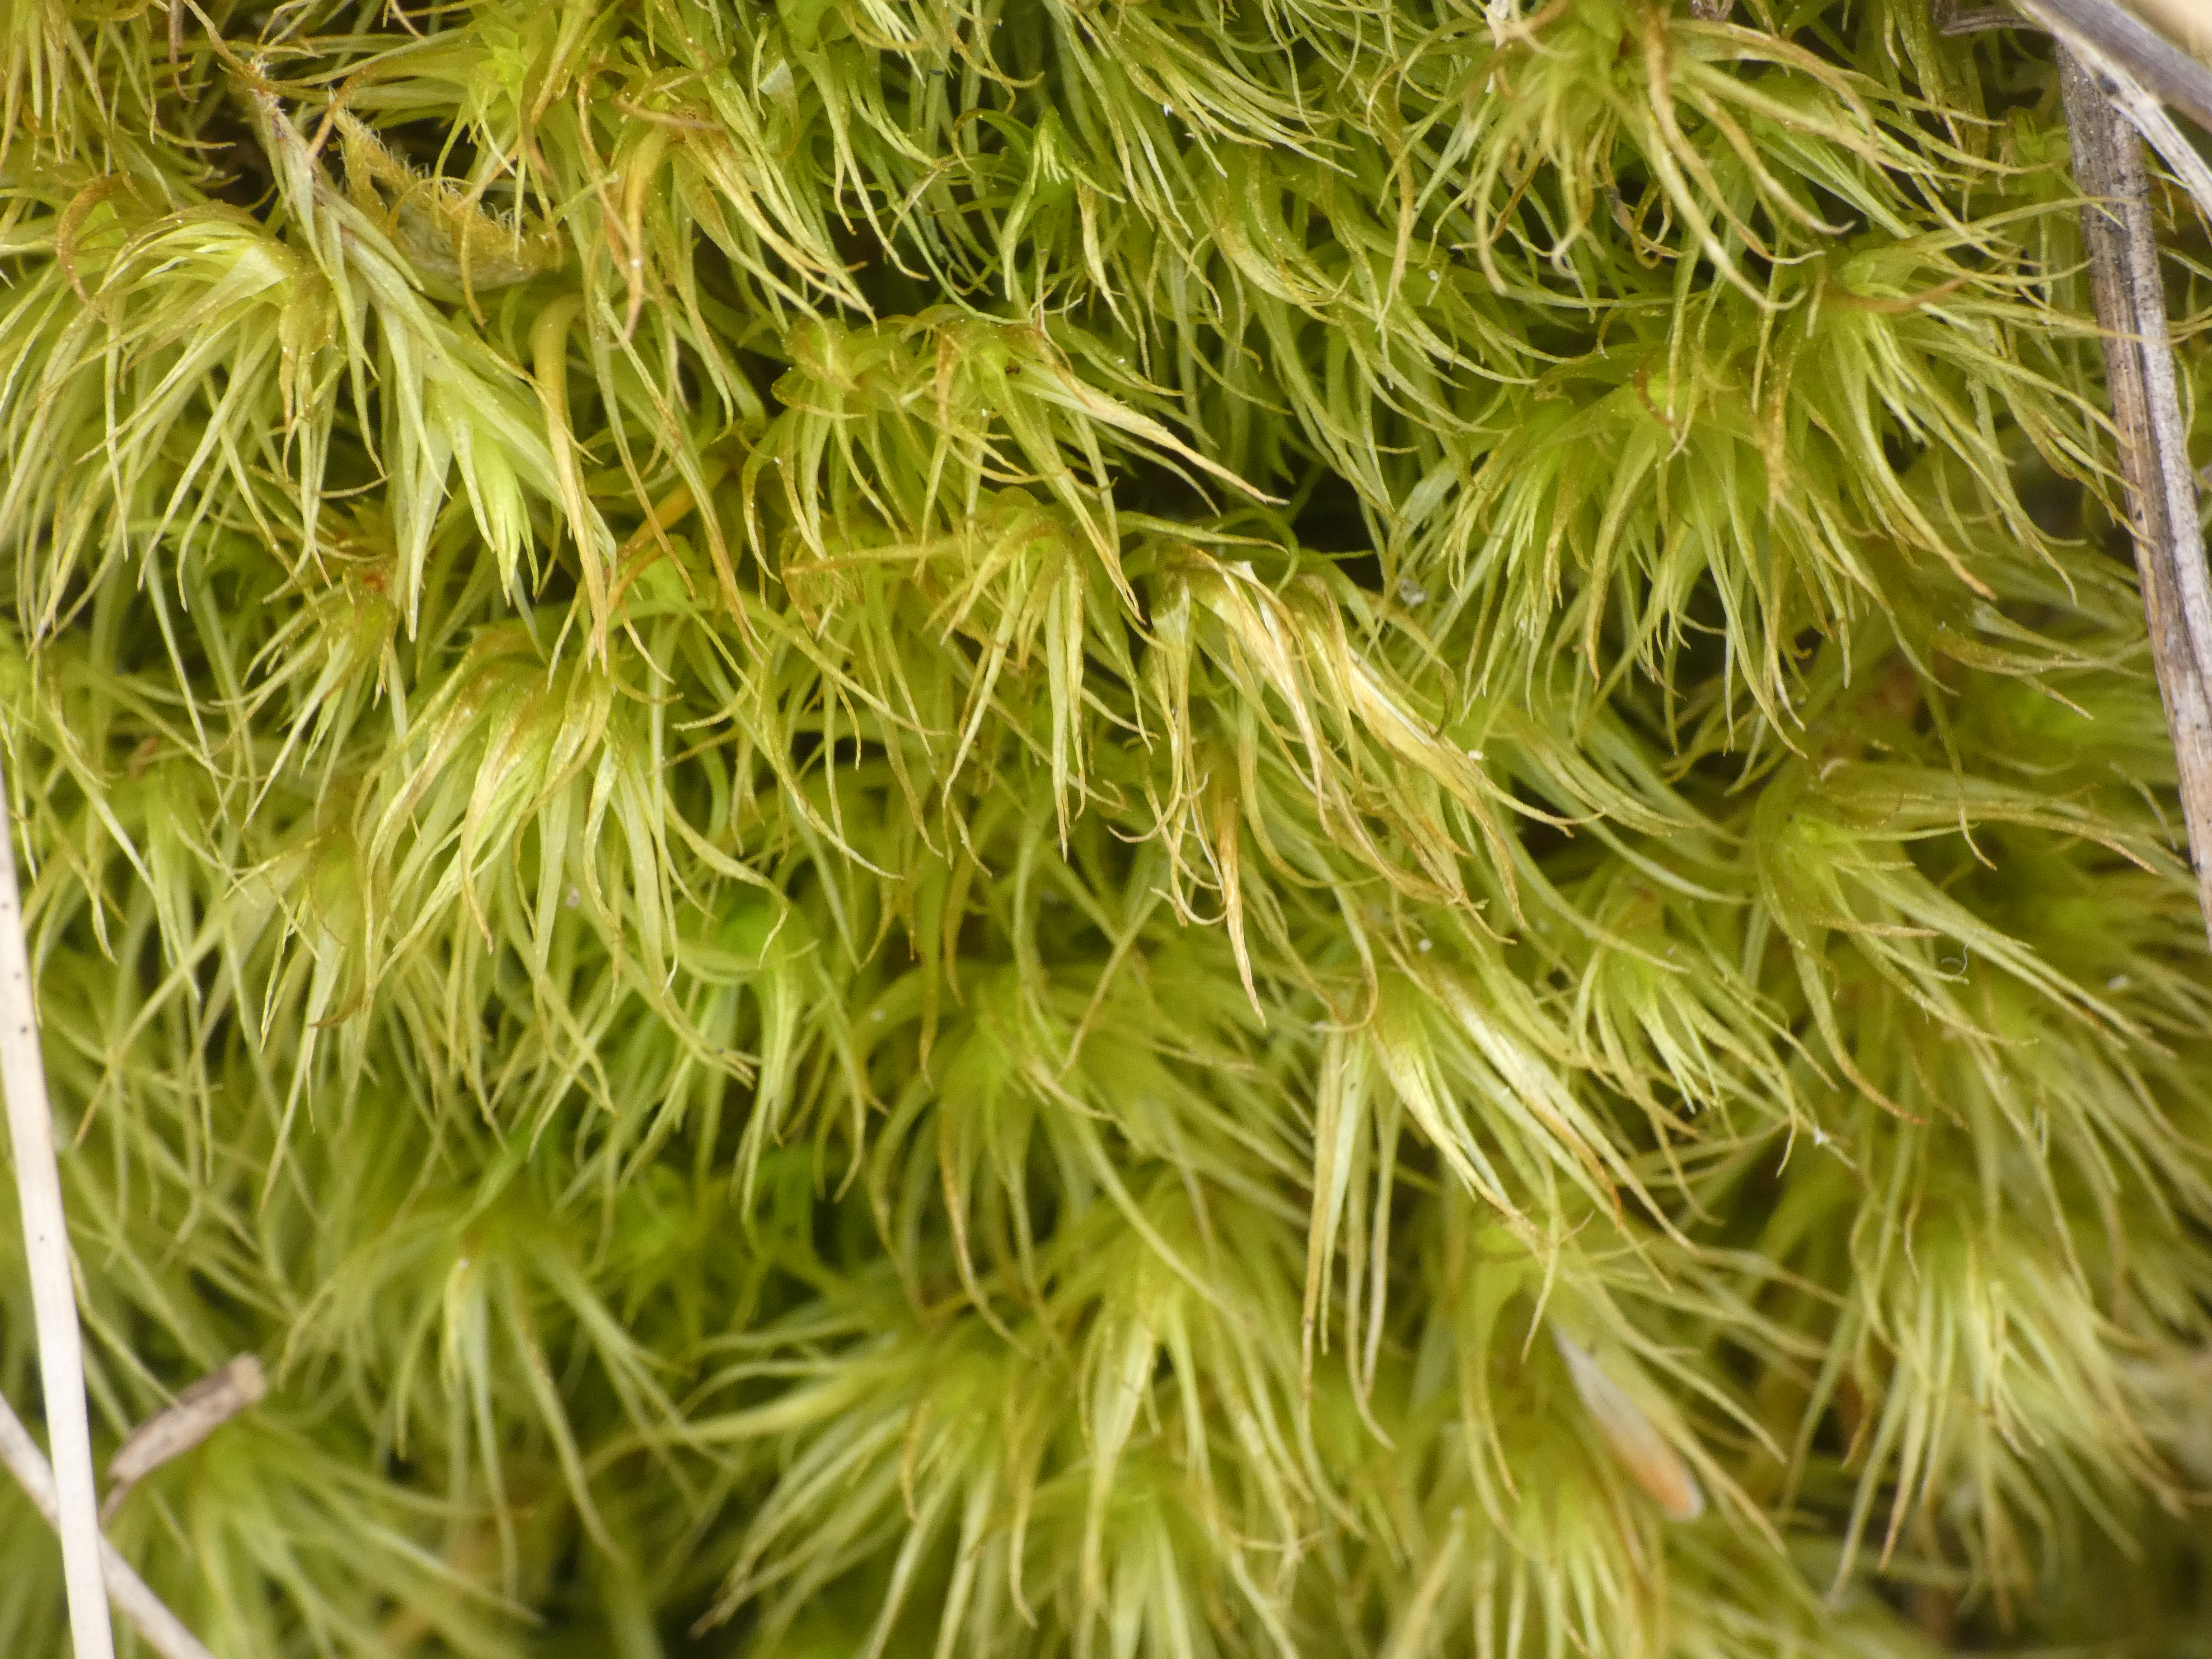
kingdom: Plantae
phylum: Bryophyta
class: Bryopsida
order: Dicranales
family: Dicranaceae
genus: Dicranum
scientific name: Dicranum scoparium
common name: Almindelig kløvtand
